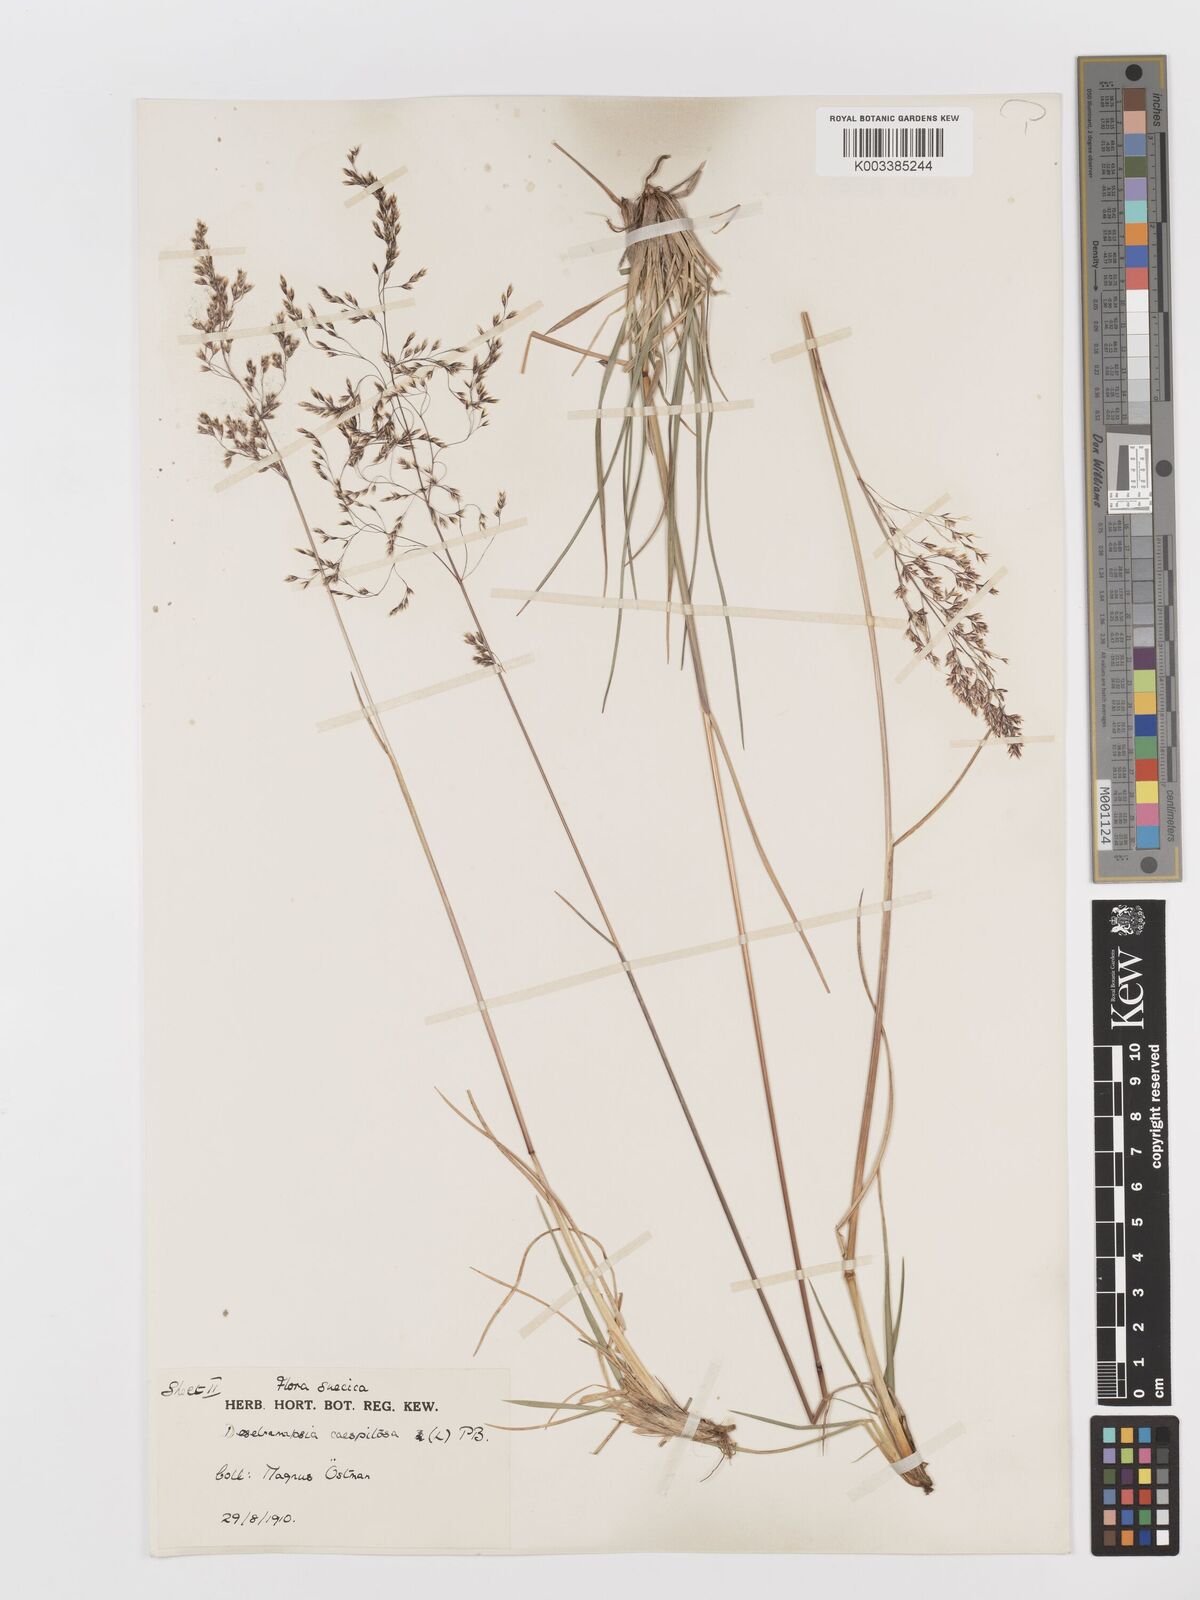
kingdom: Plantae
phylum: Tracheophyta
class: Liliopsida
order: Poales
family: Poaceae
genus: Deschampsia
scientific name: Deschampsia cespitosa
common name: Tufted hair-grass
